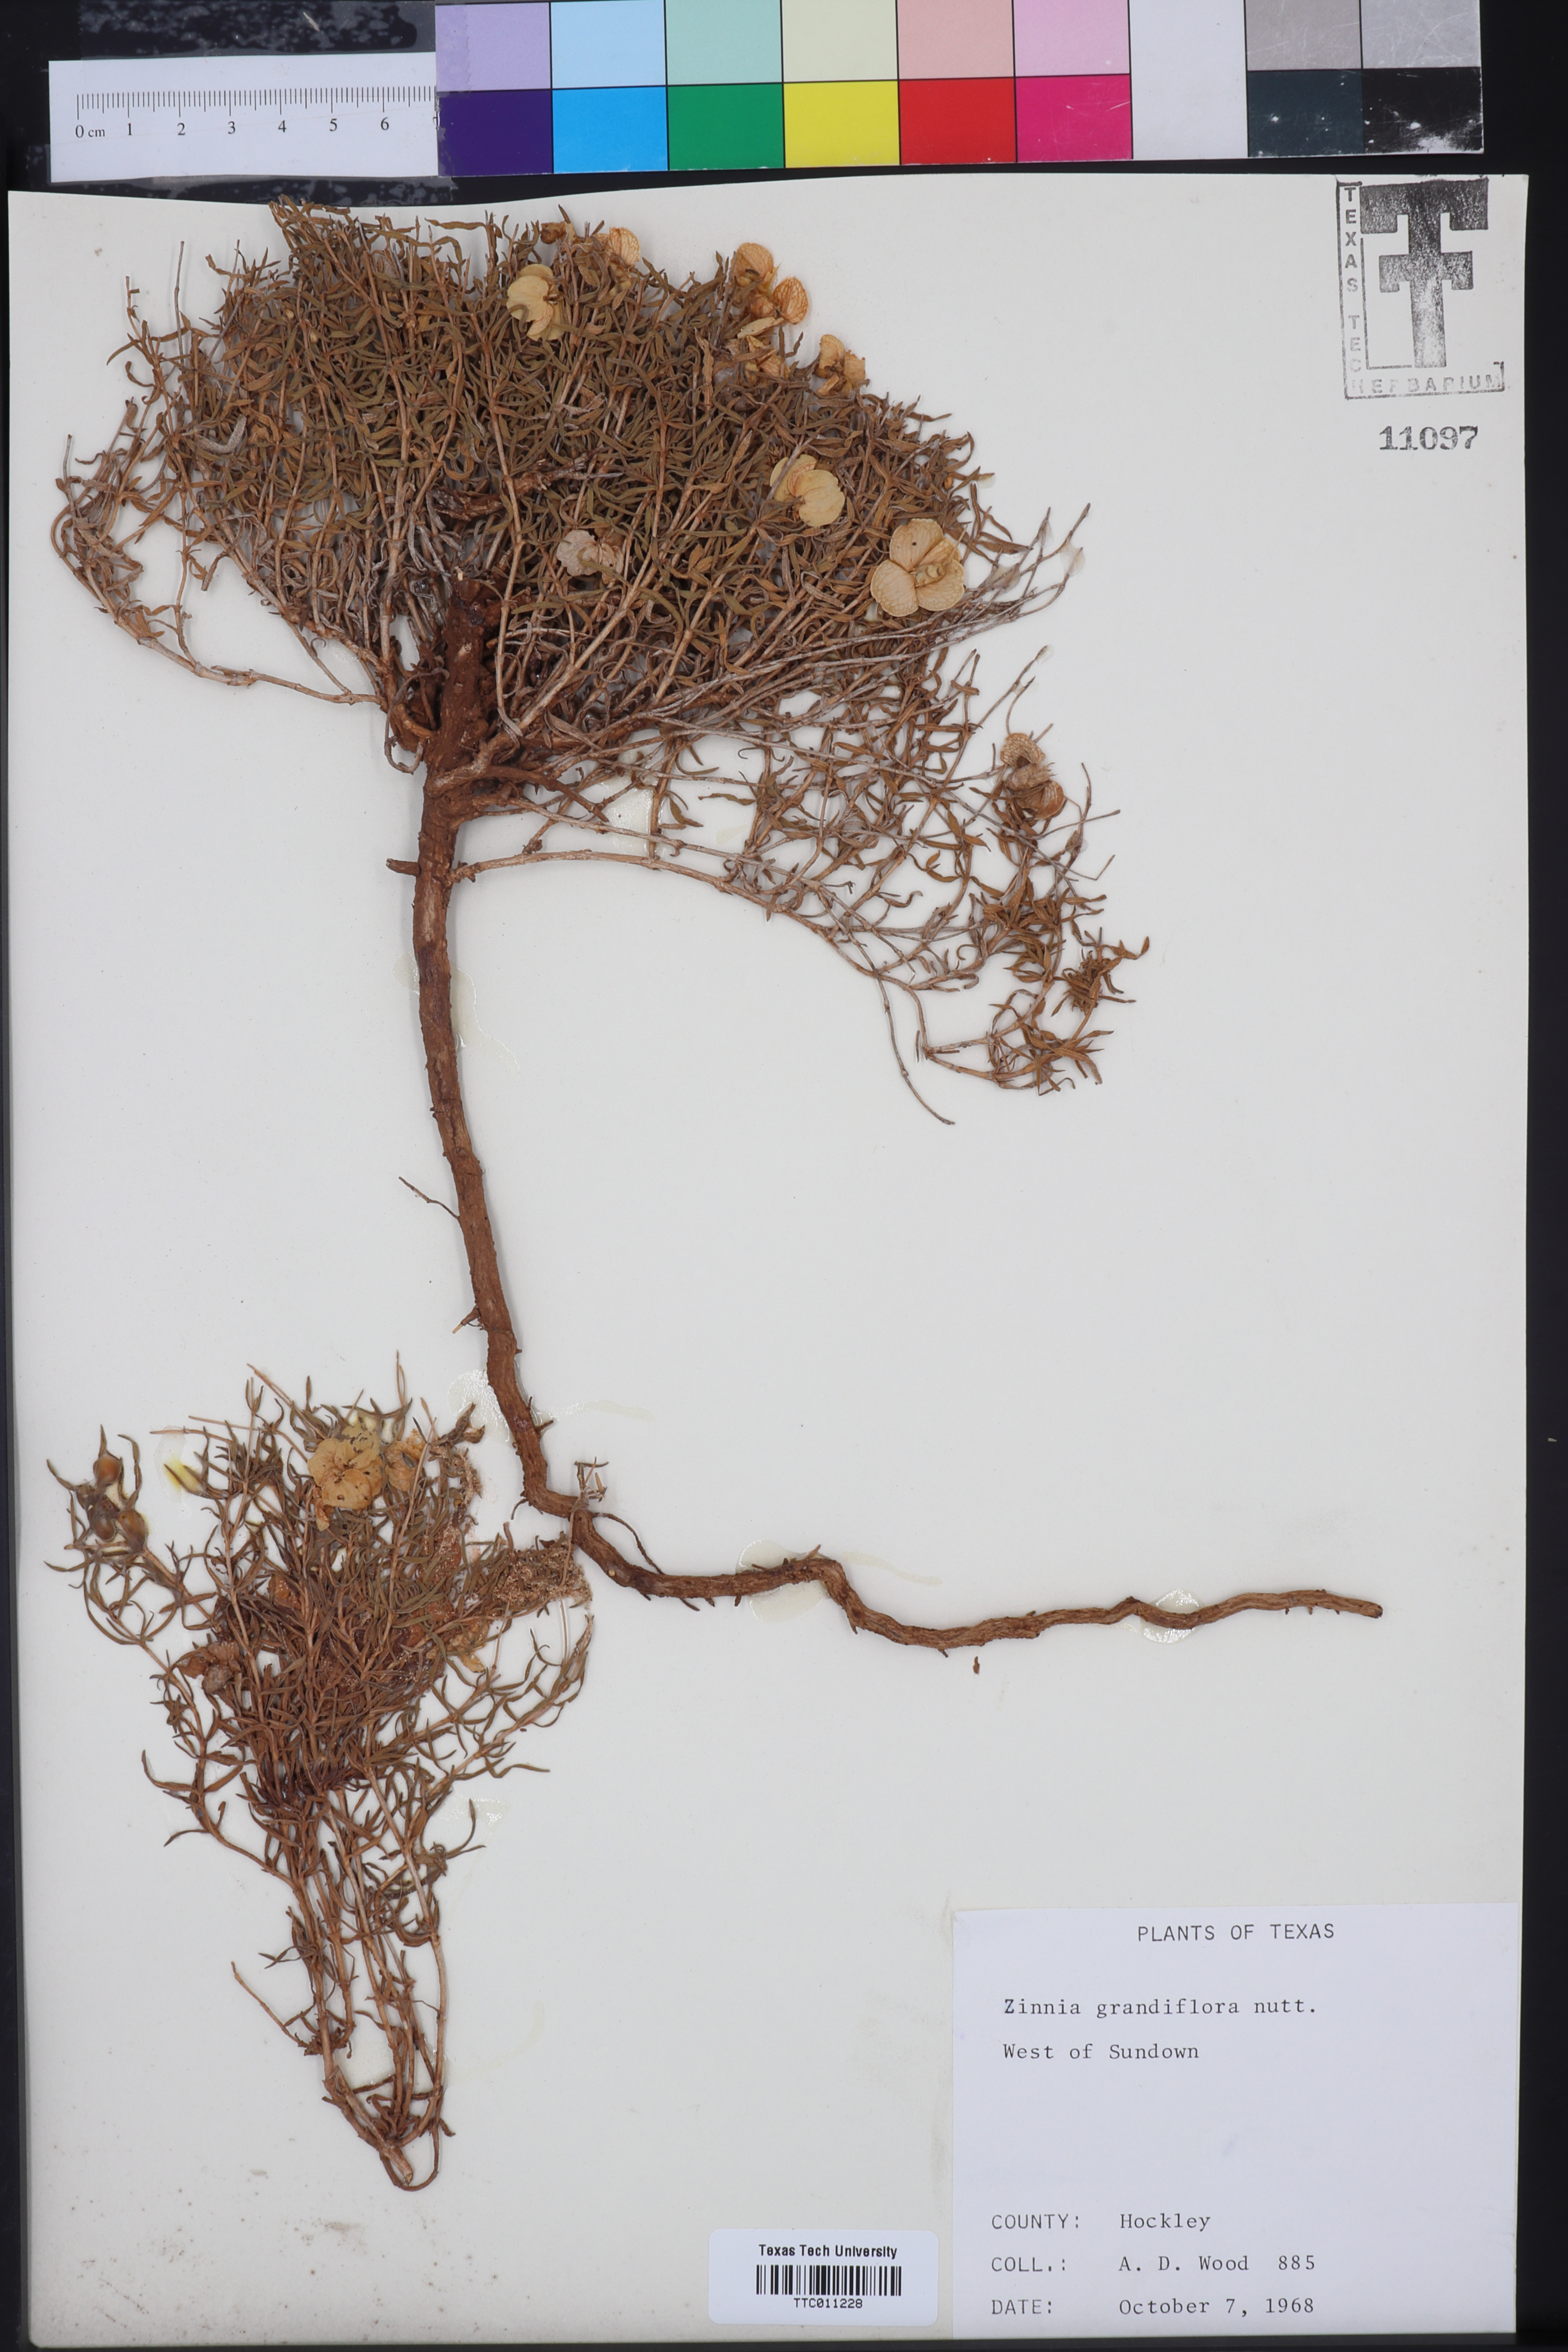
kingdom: Plantae
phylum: Tracheophyta
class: Magnoliopsida
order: Asterales
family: Asteraceae
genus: Zinnia
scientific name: Zinnia grandiflora
